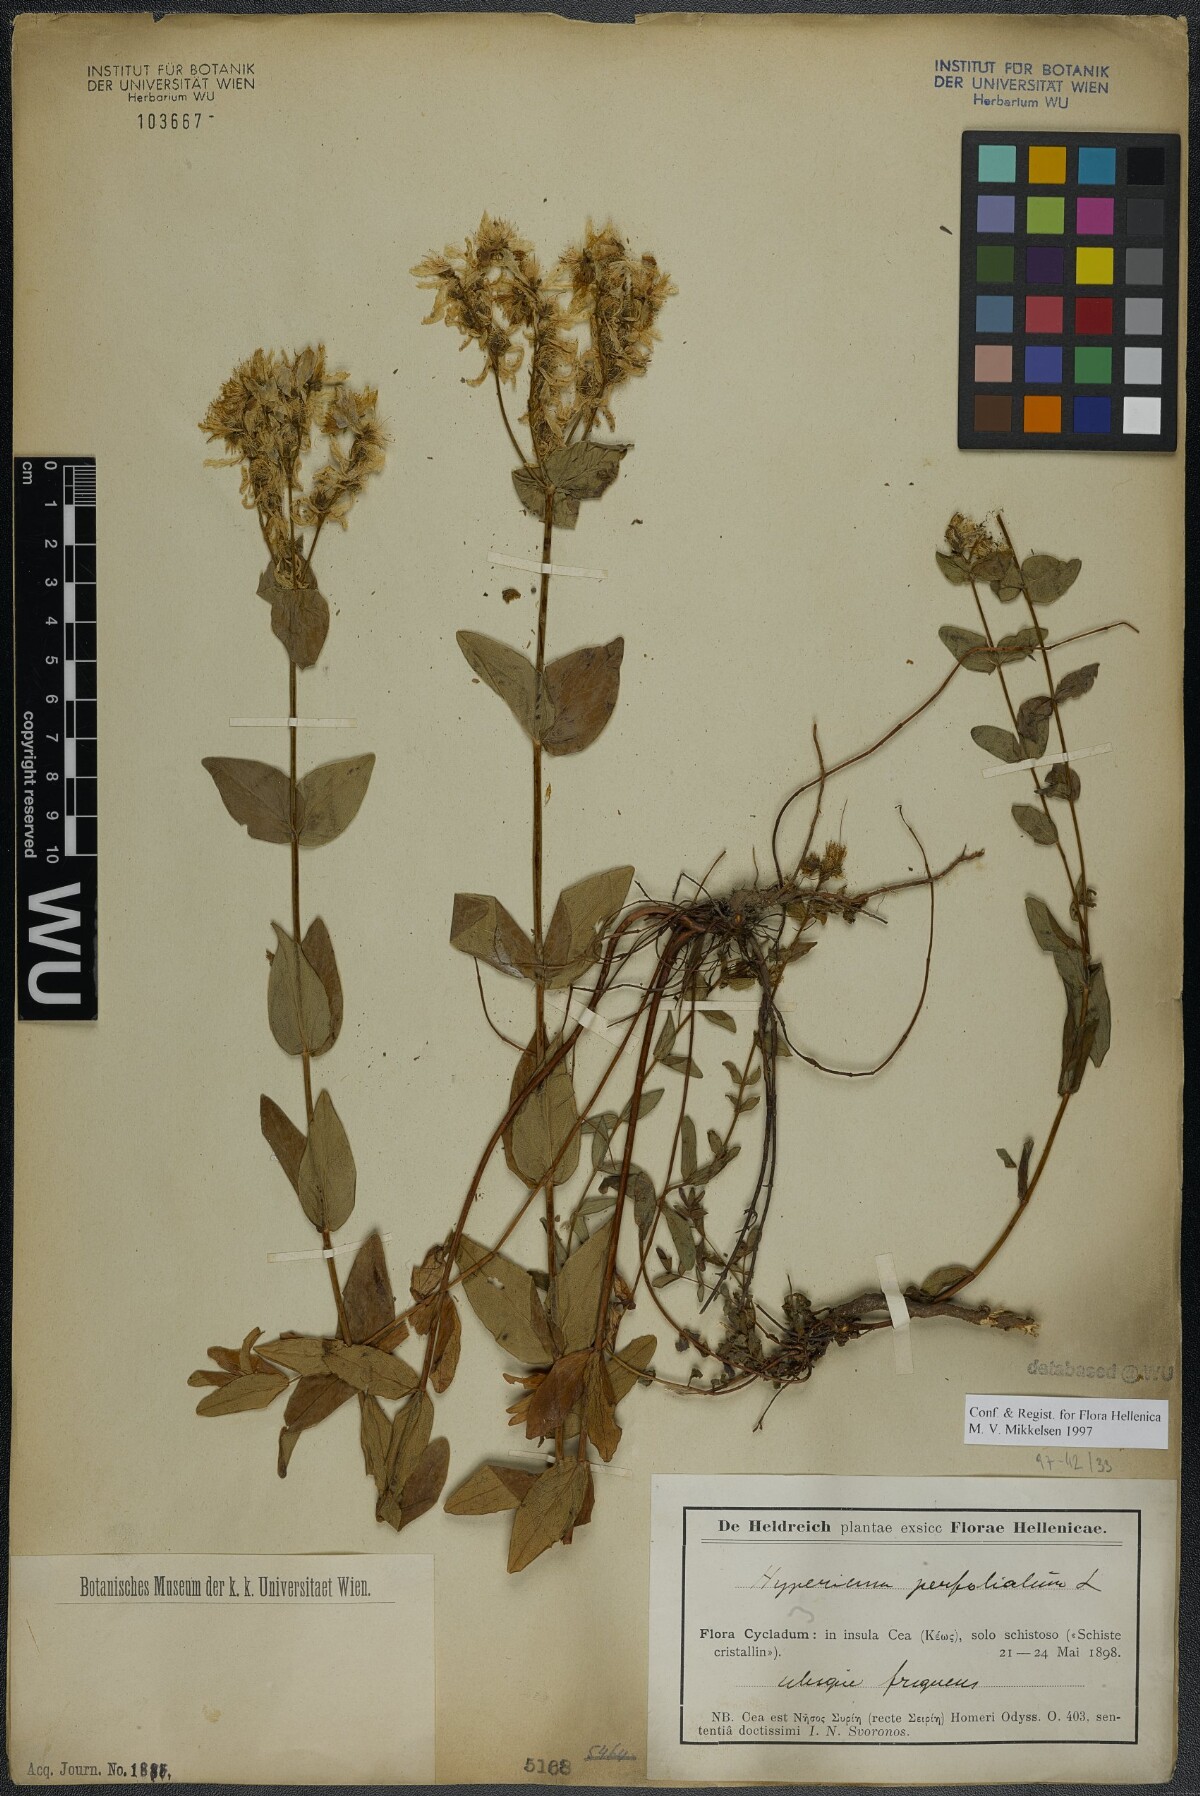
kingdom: Plantae
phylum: Tracheophyta
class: Magnoliopsida
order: Malpighiales
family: Hypericaceae
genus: Hypericum
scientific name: Hypericum perfoliatum
